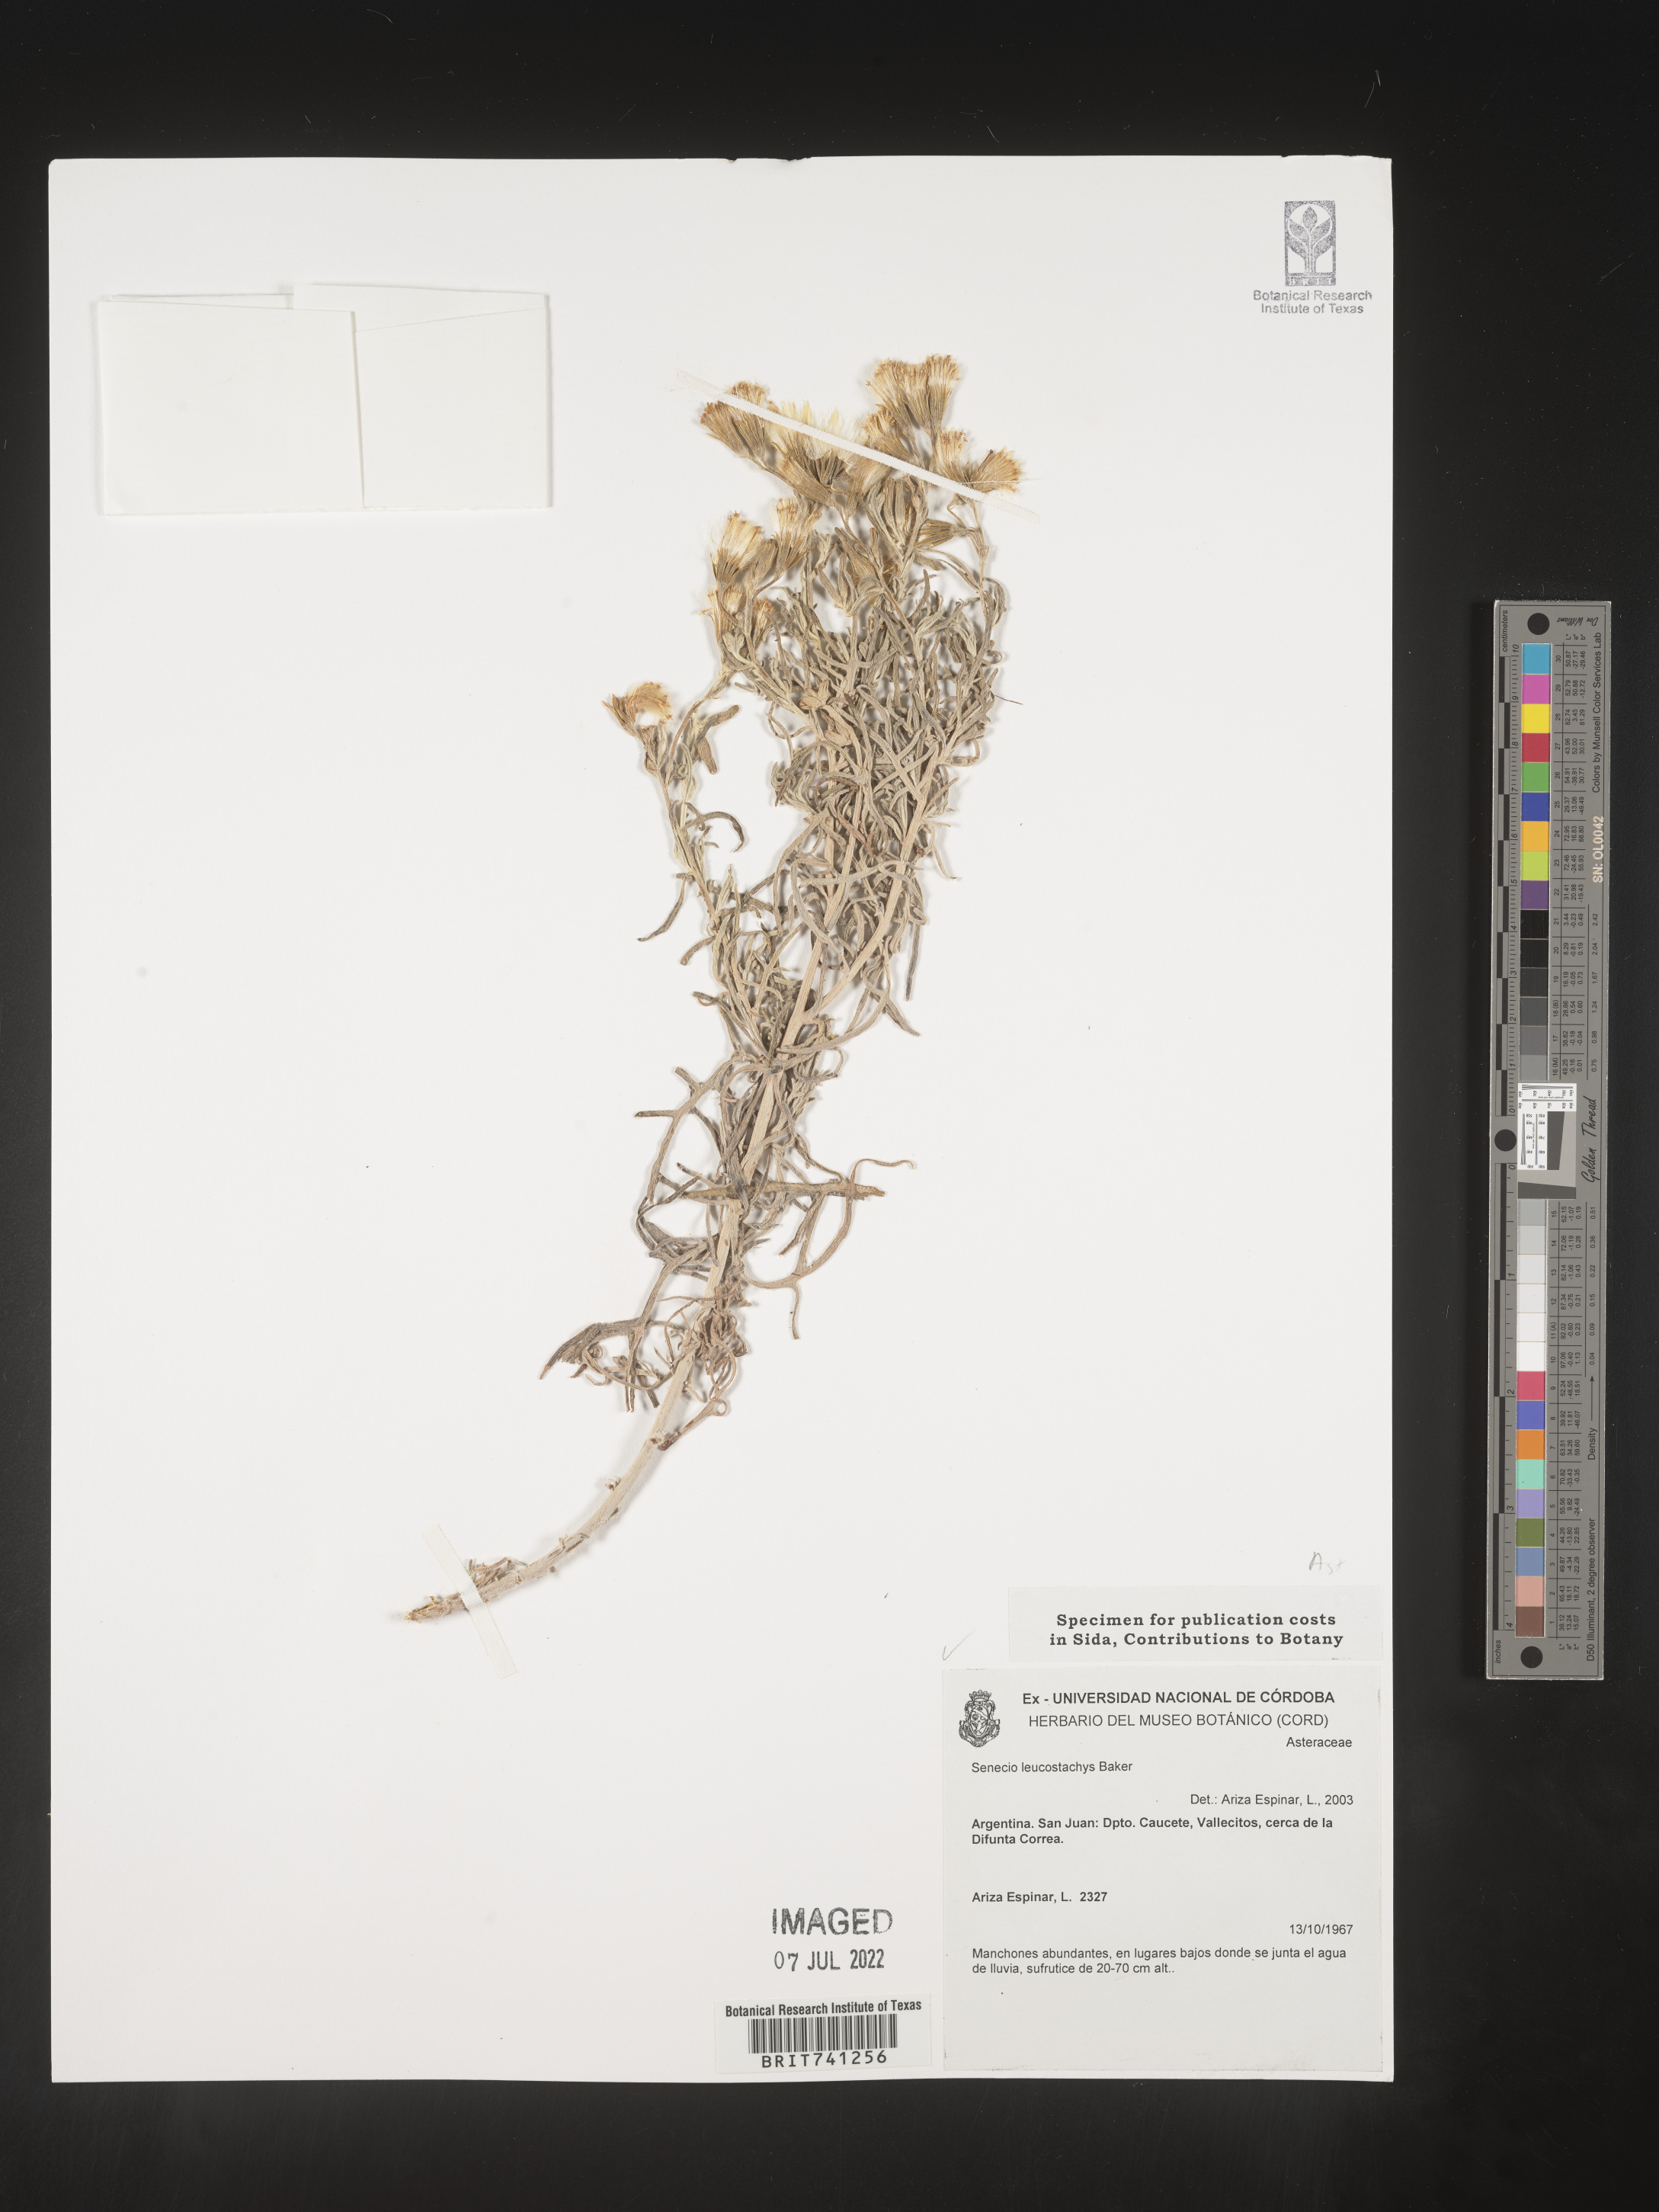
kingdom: Plantae
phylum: Tracheophyta
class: Magnoliopsida
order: Asterales
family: Asteraceae
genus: Senecio
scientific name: Senecio
